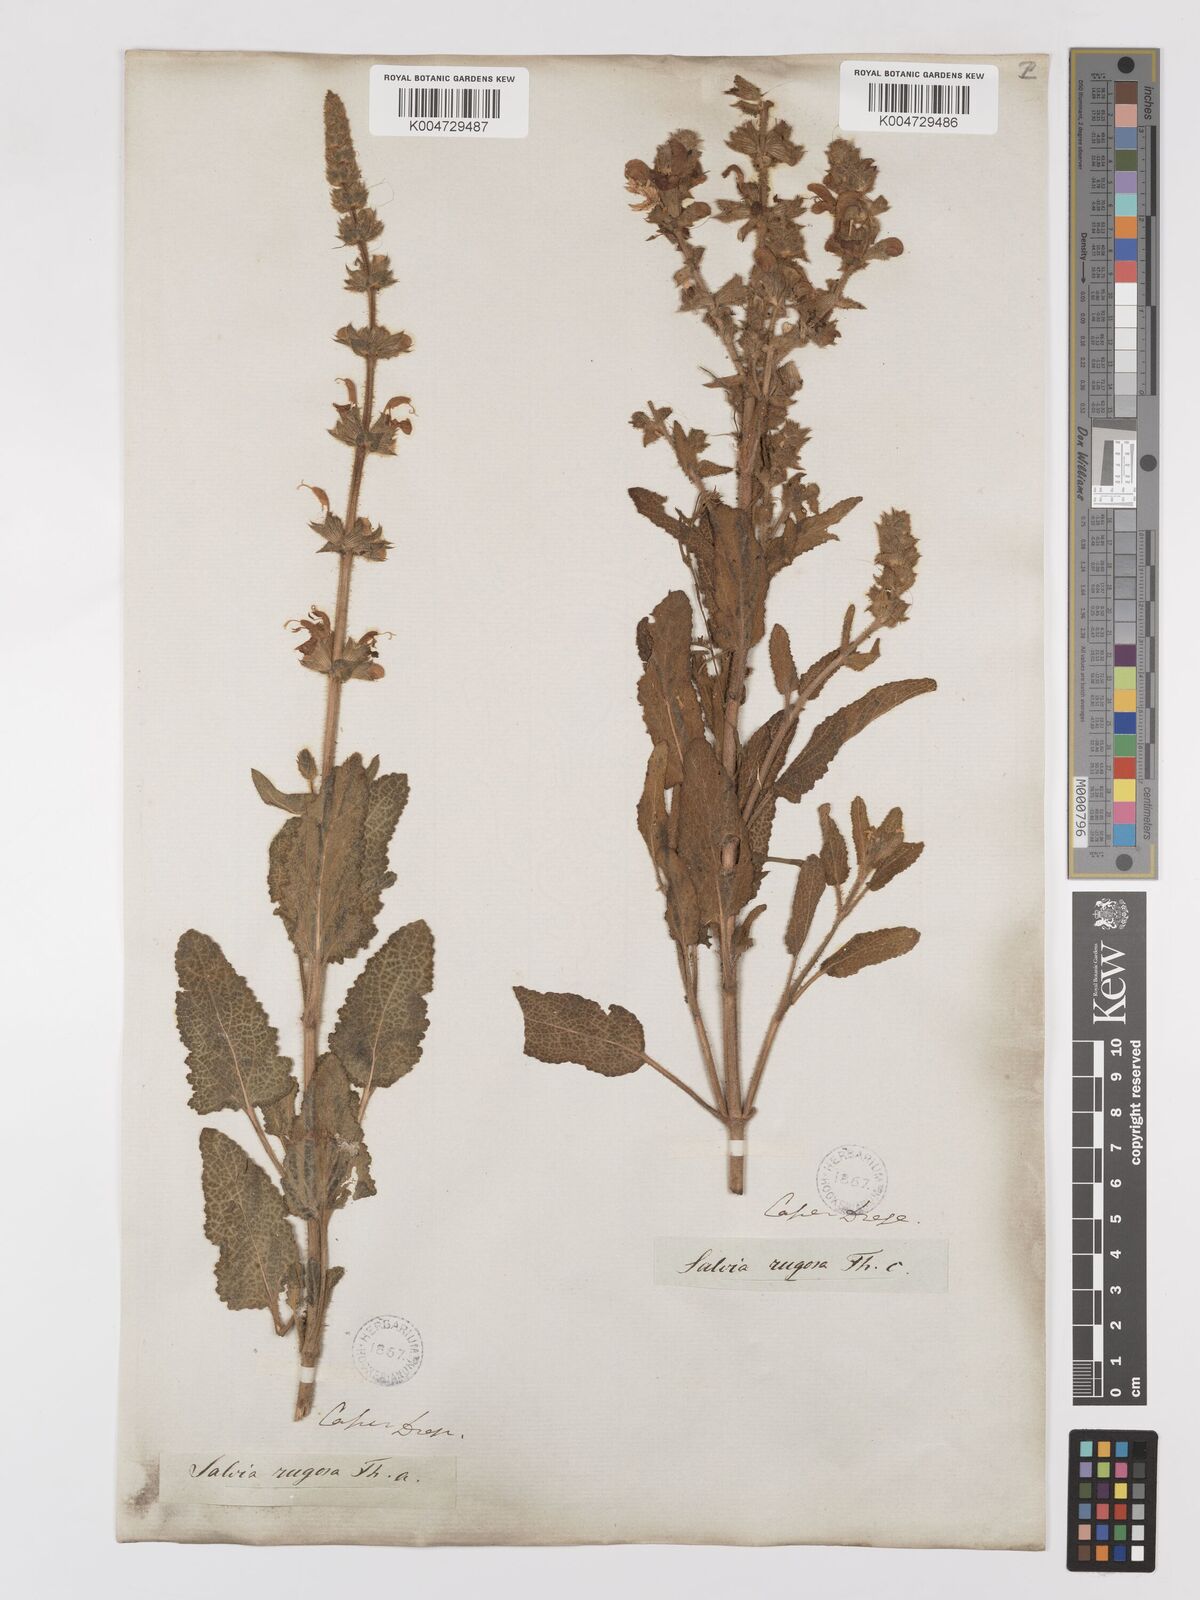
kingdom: Plantae
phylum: Tracheophyta
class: Magnoliopsida
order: Lamiales
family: Lamiaceae
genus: Salvia
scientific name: Salvia
